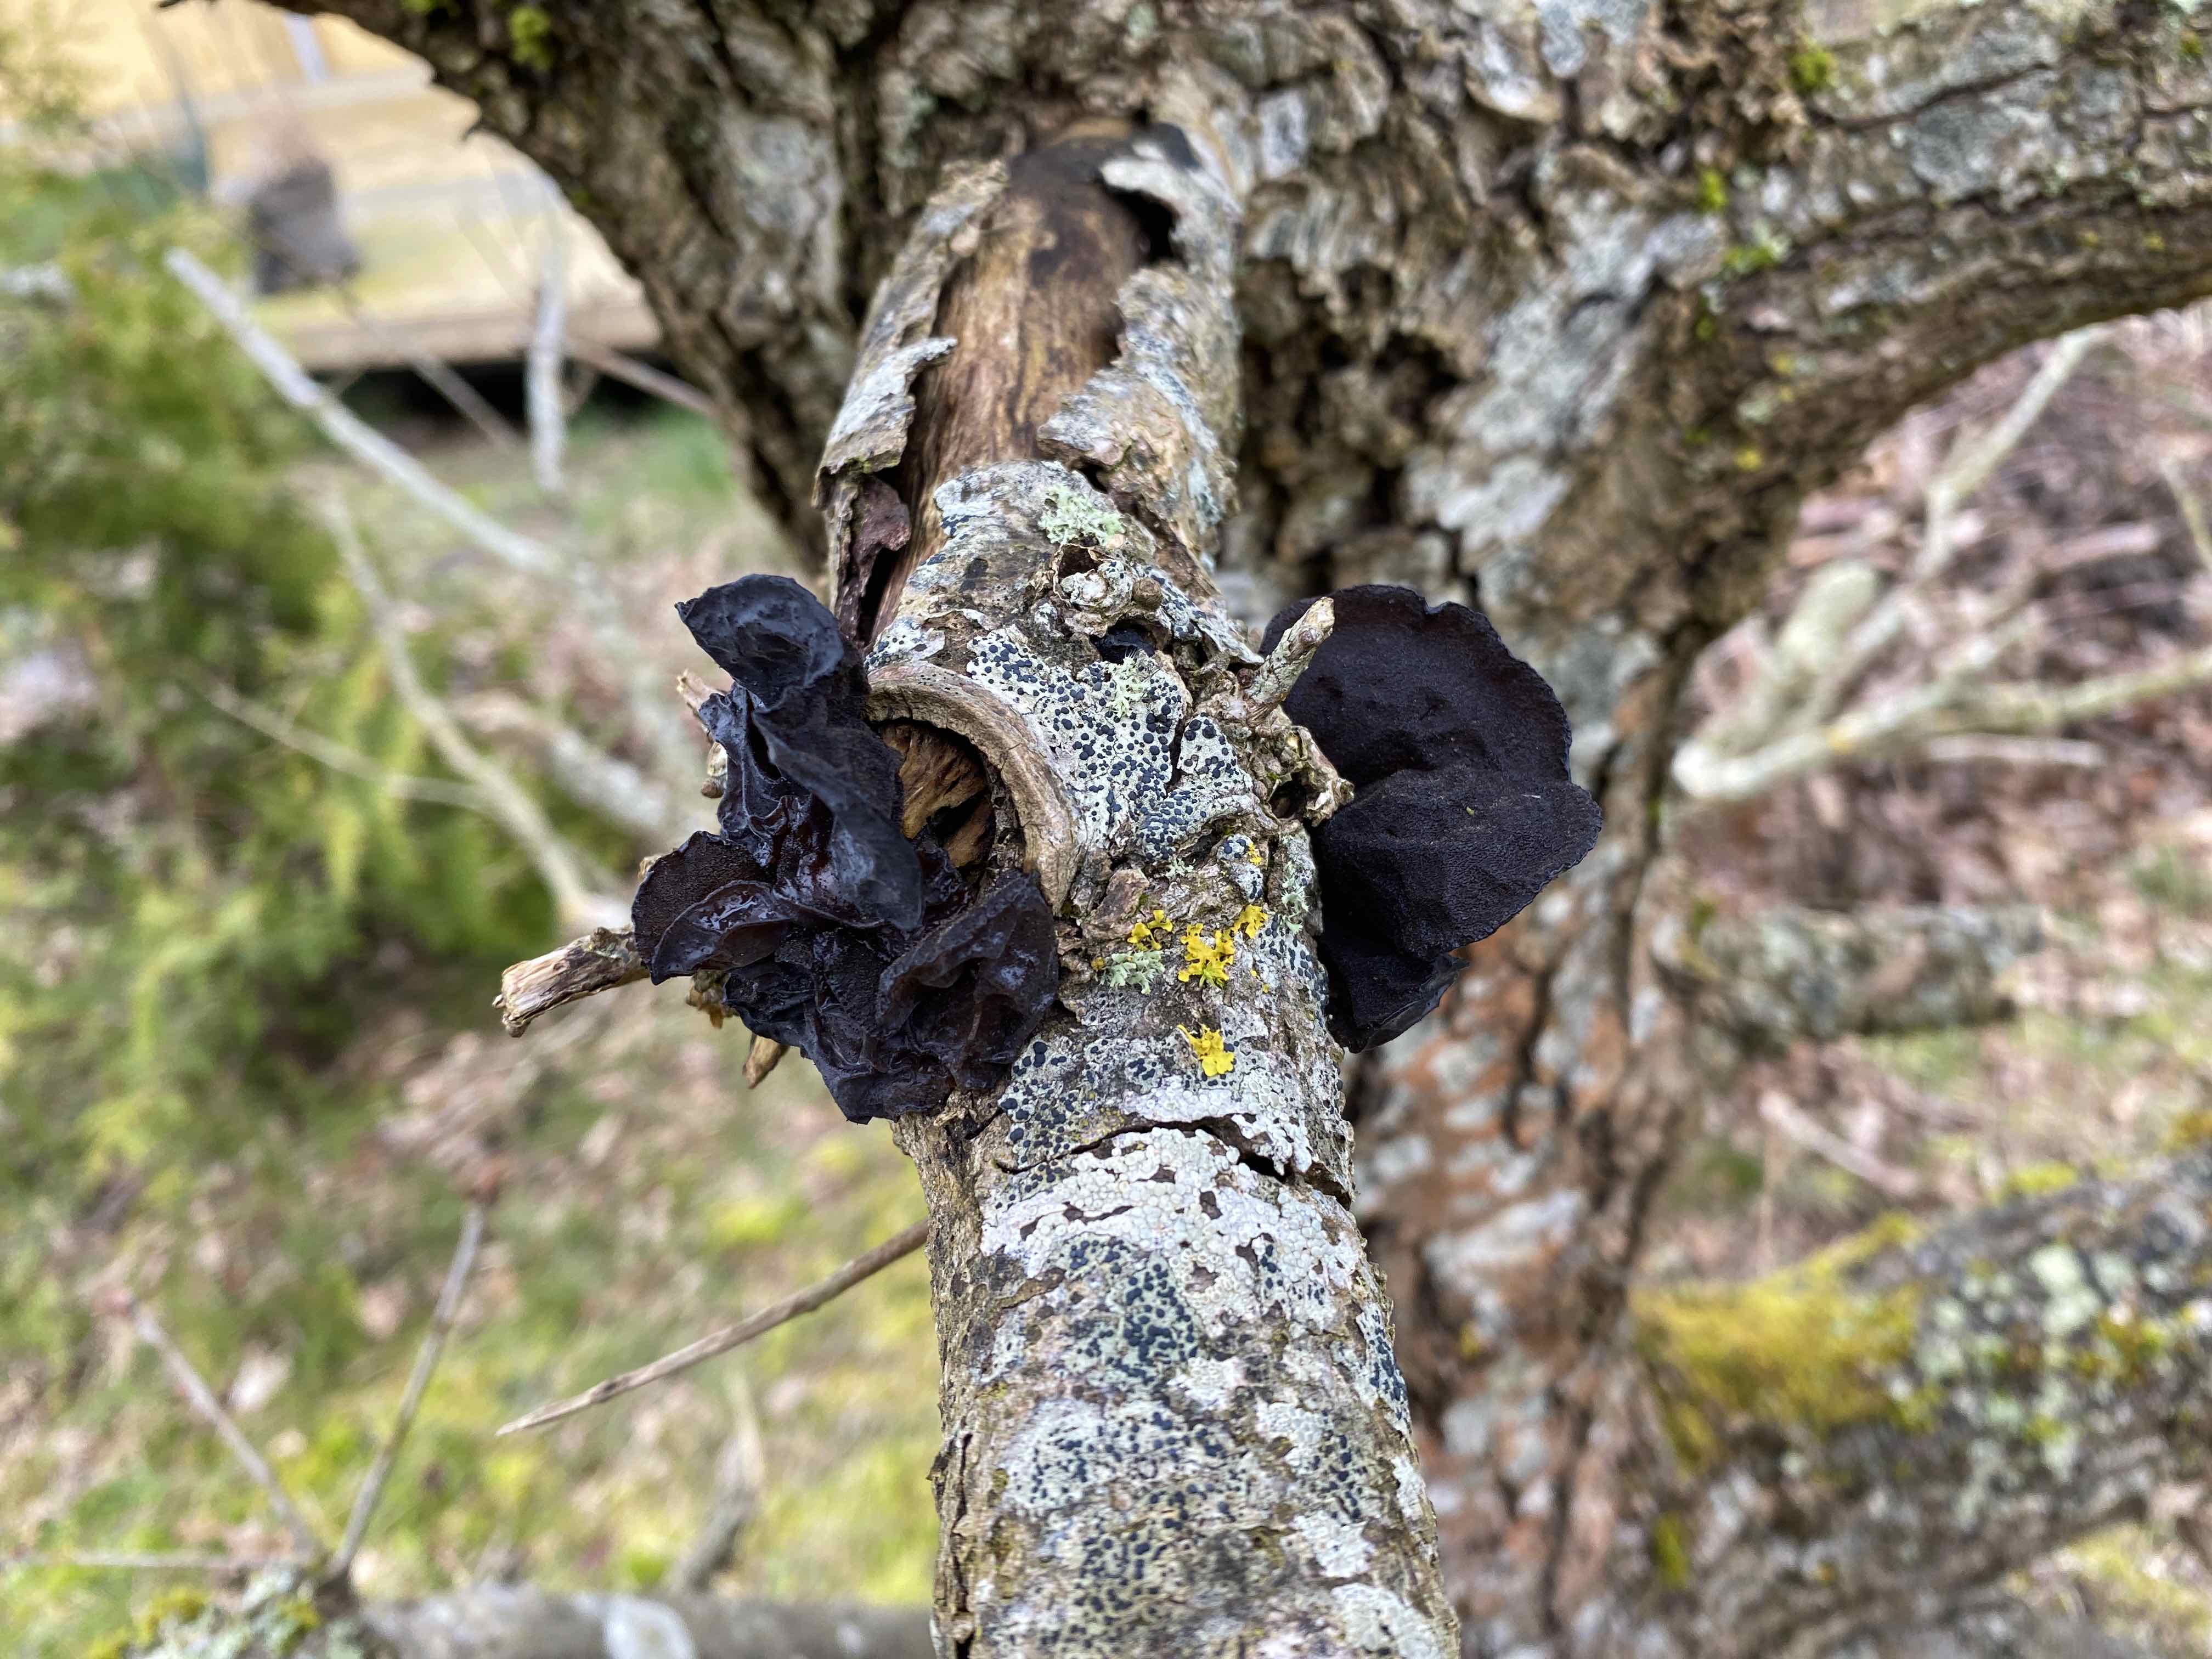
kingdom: Fungi
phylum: Basidiomycota
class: Agaricomycetes
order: Auriculariales
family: Auriculariaceae
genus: Exidia
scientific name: Exidia glandulosa
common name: ege-bævretop
